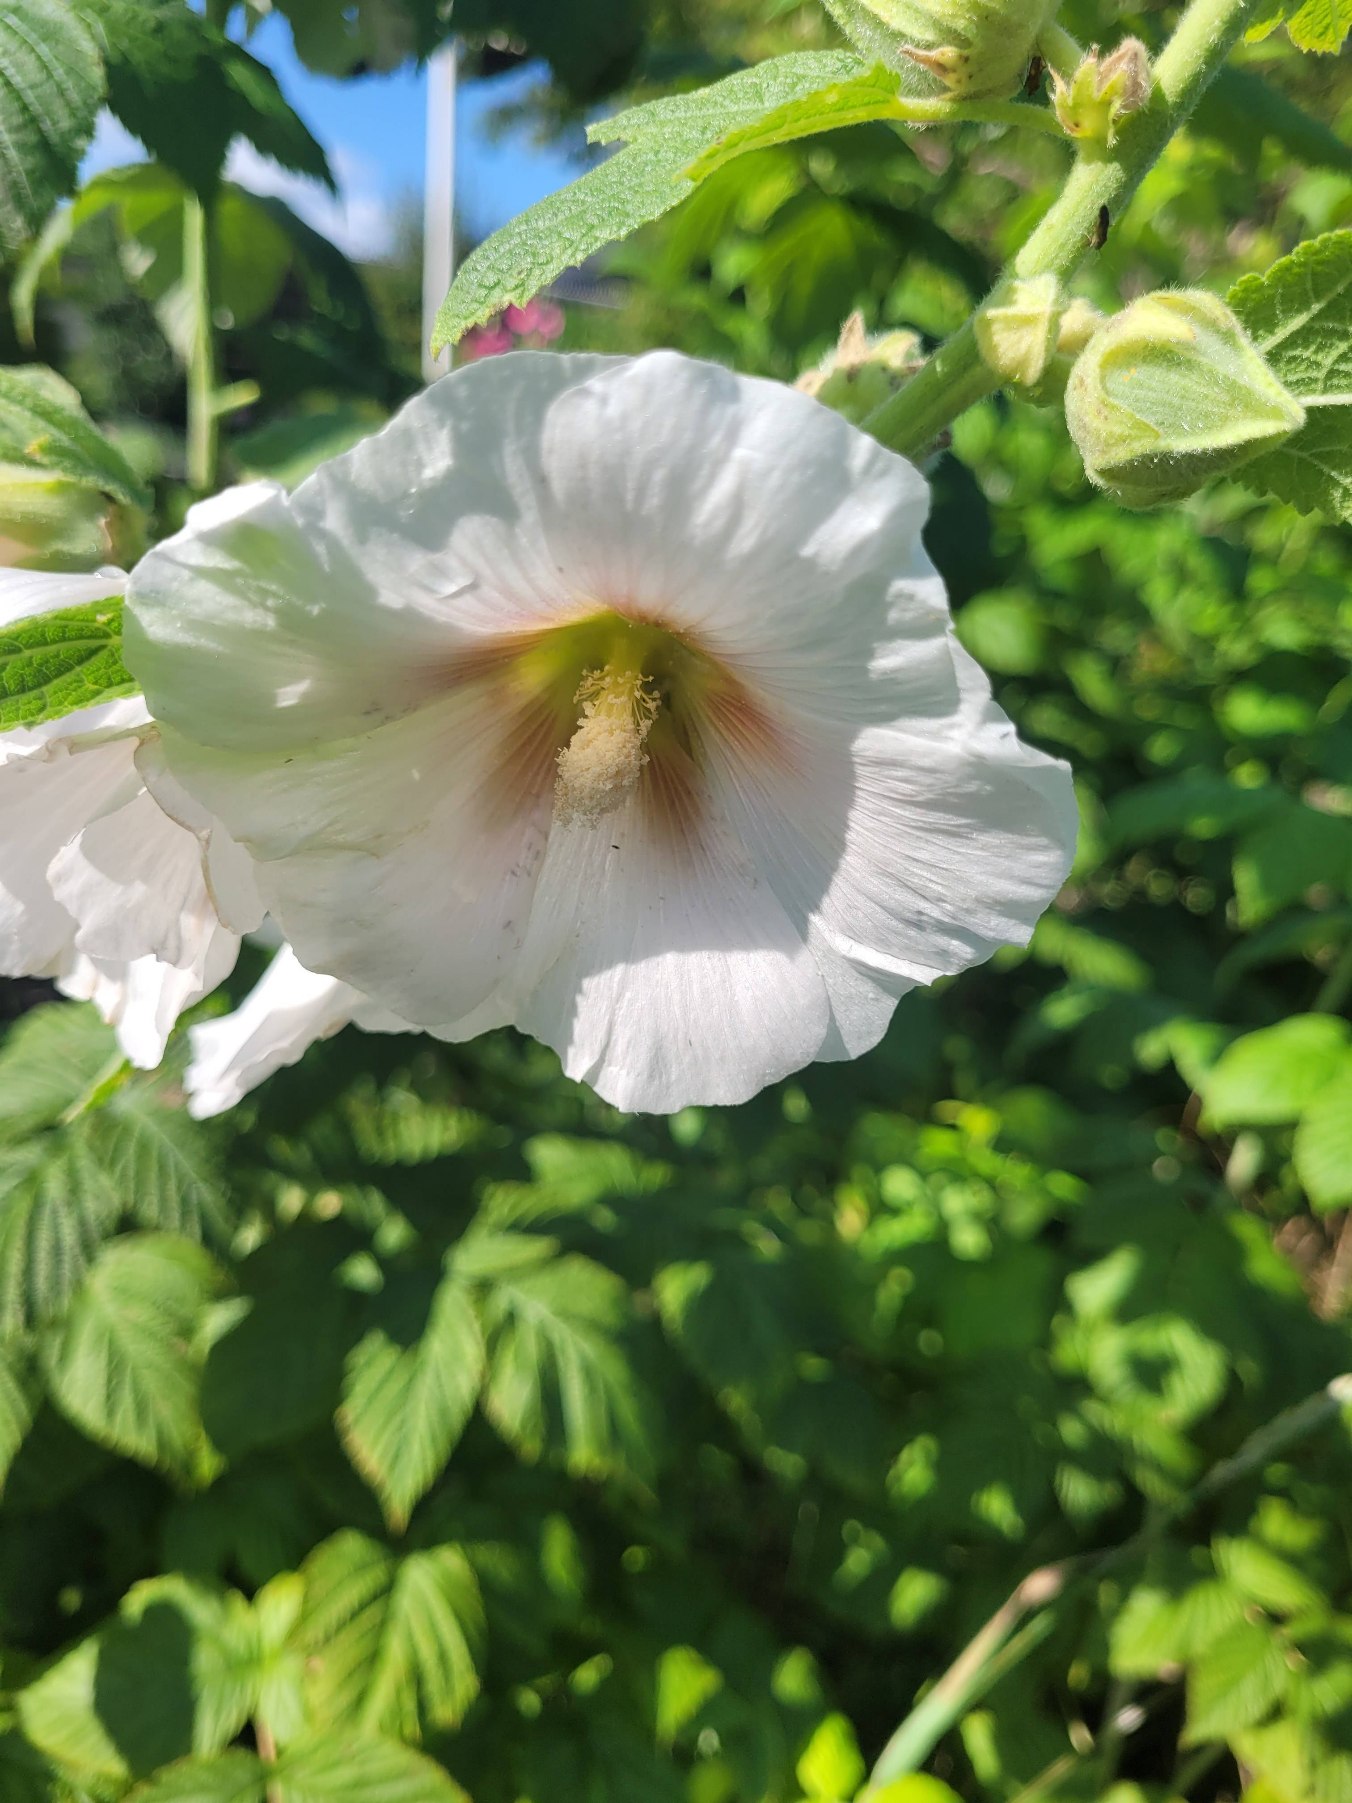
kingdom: Plantae
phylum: Tracheophyta
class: Magnoliopsida
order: Malvales
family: Malvaceae
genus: Alcea
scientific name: Alcea rosea
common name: Have-stokrose
